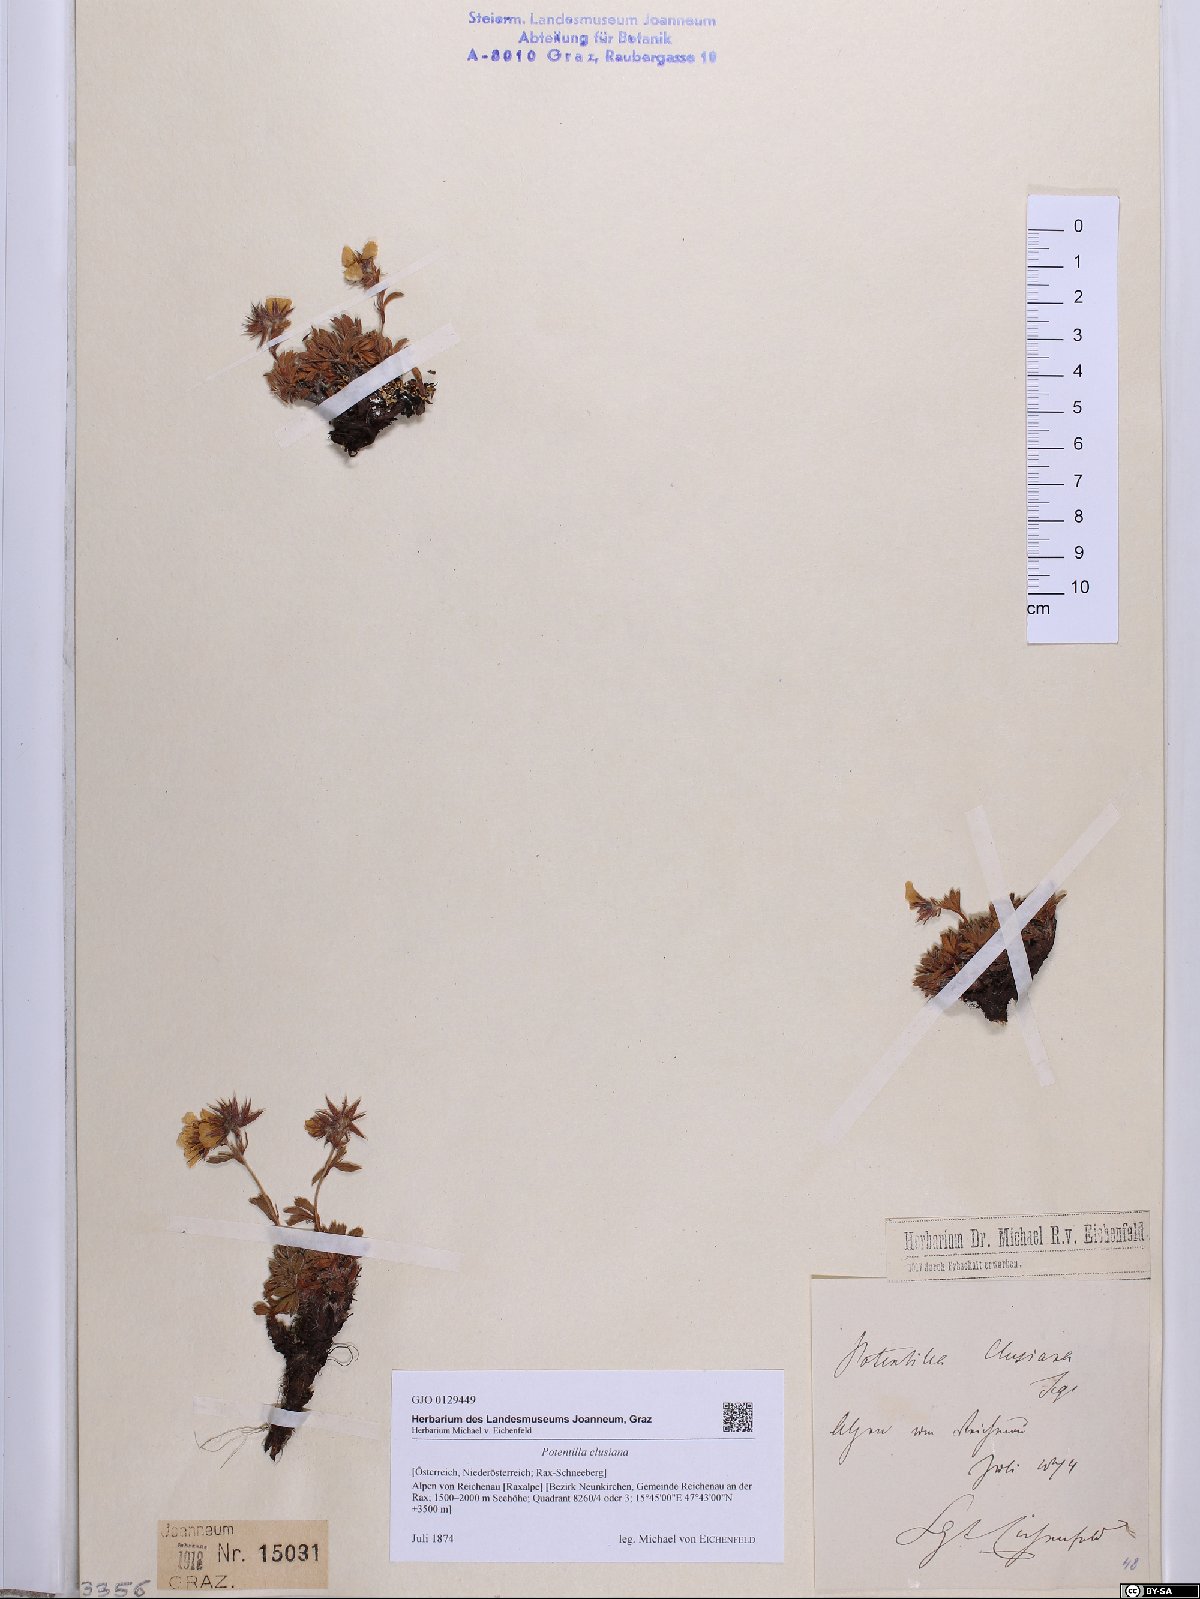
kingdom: Plantae
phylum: Tracheophyta
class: Magnoliopsida
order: Rosales
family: Rosaceae
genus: Potentilla
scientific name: Potentilla clusiana
